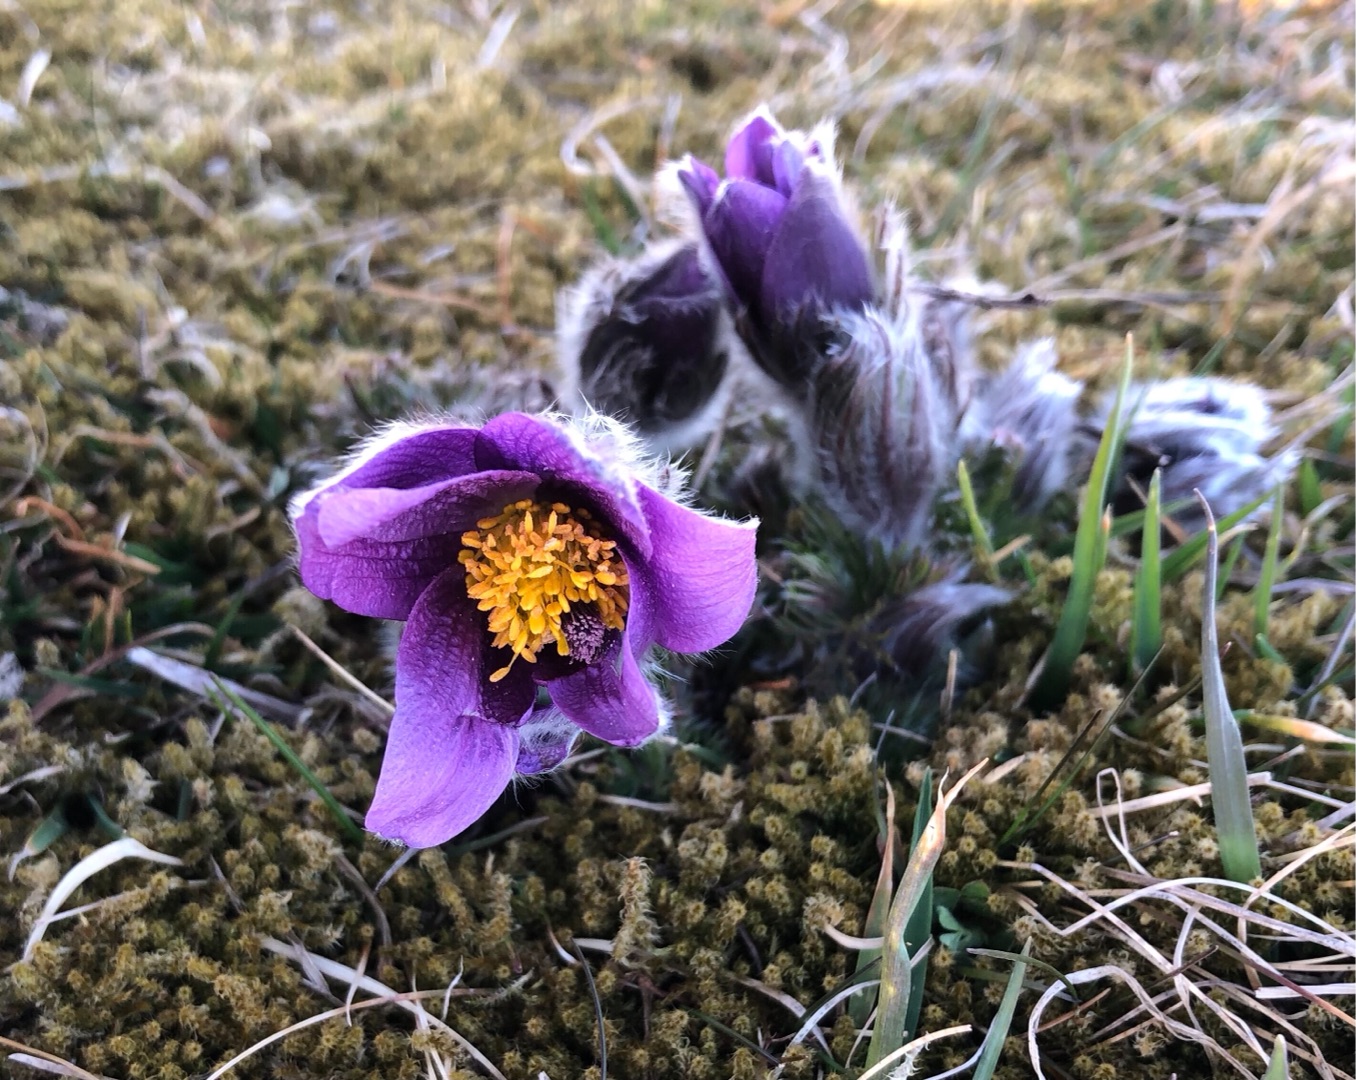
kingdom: Plantae
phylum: Tracheophyta
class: Magnoliopsida
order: Ranunculales
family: Ranunculaceae
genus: Pulsatilla
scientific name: Pulsatilla vulgaris
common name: Opret kobjælde
